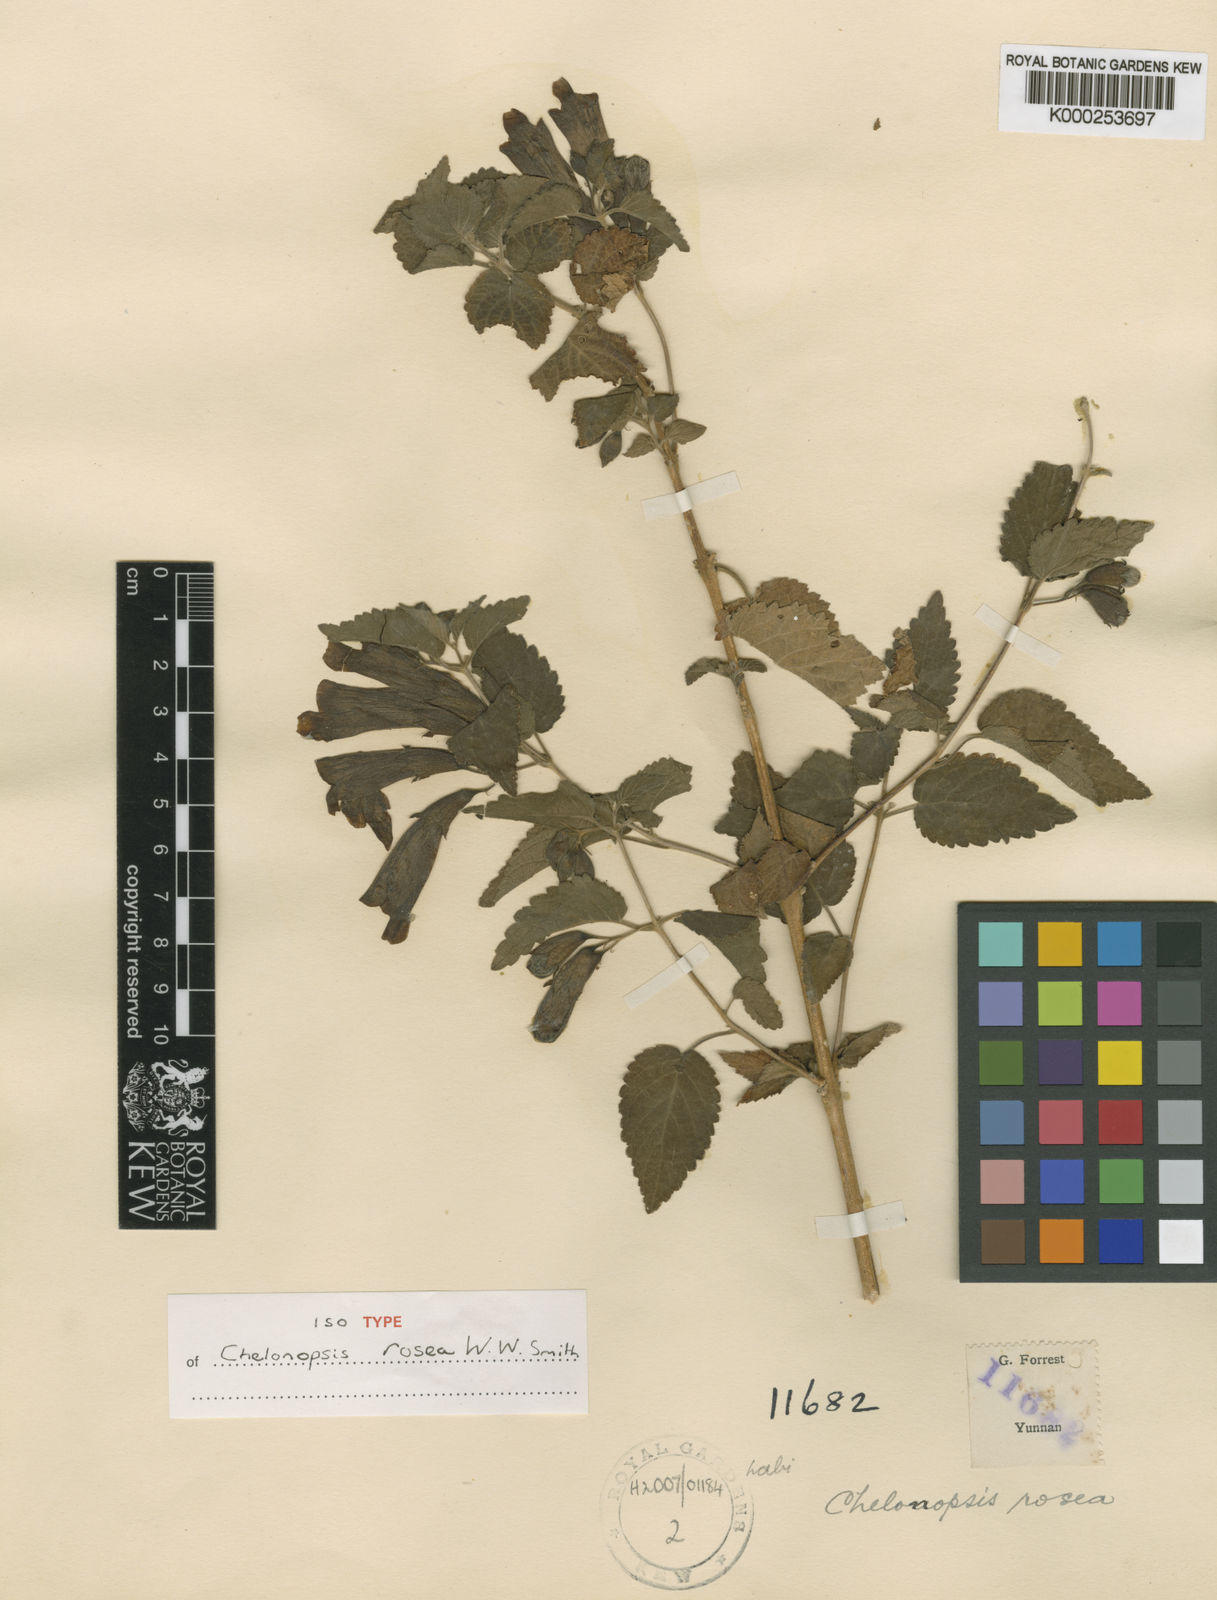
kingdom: Plantae
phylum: Tracheophyta
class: Magnoliopsida
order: Lamiales
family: Lamiaceae
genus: Chelonopsis
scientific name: Chelonopsis rosea
